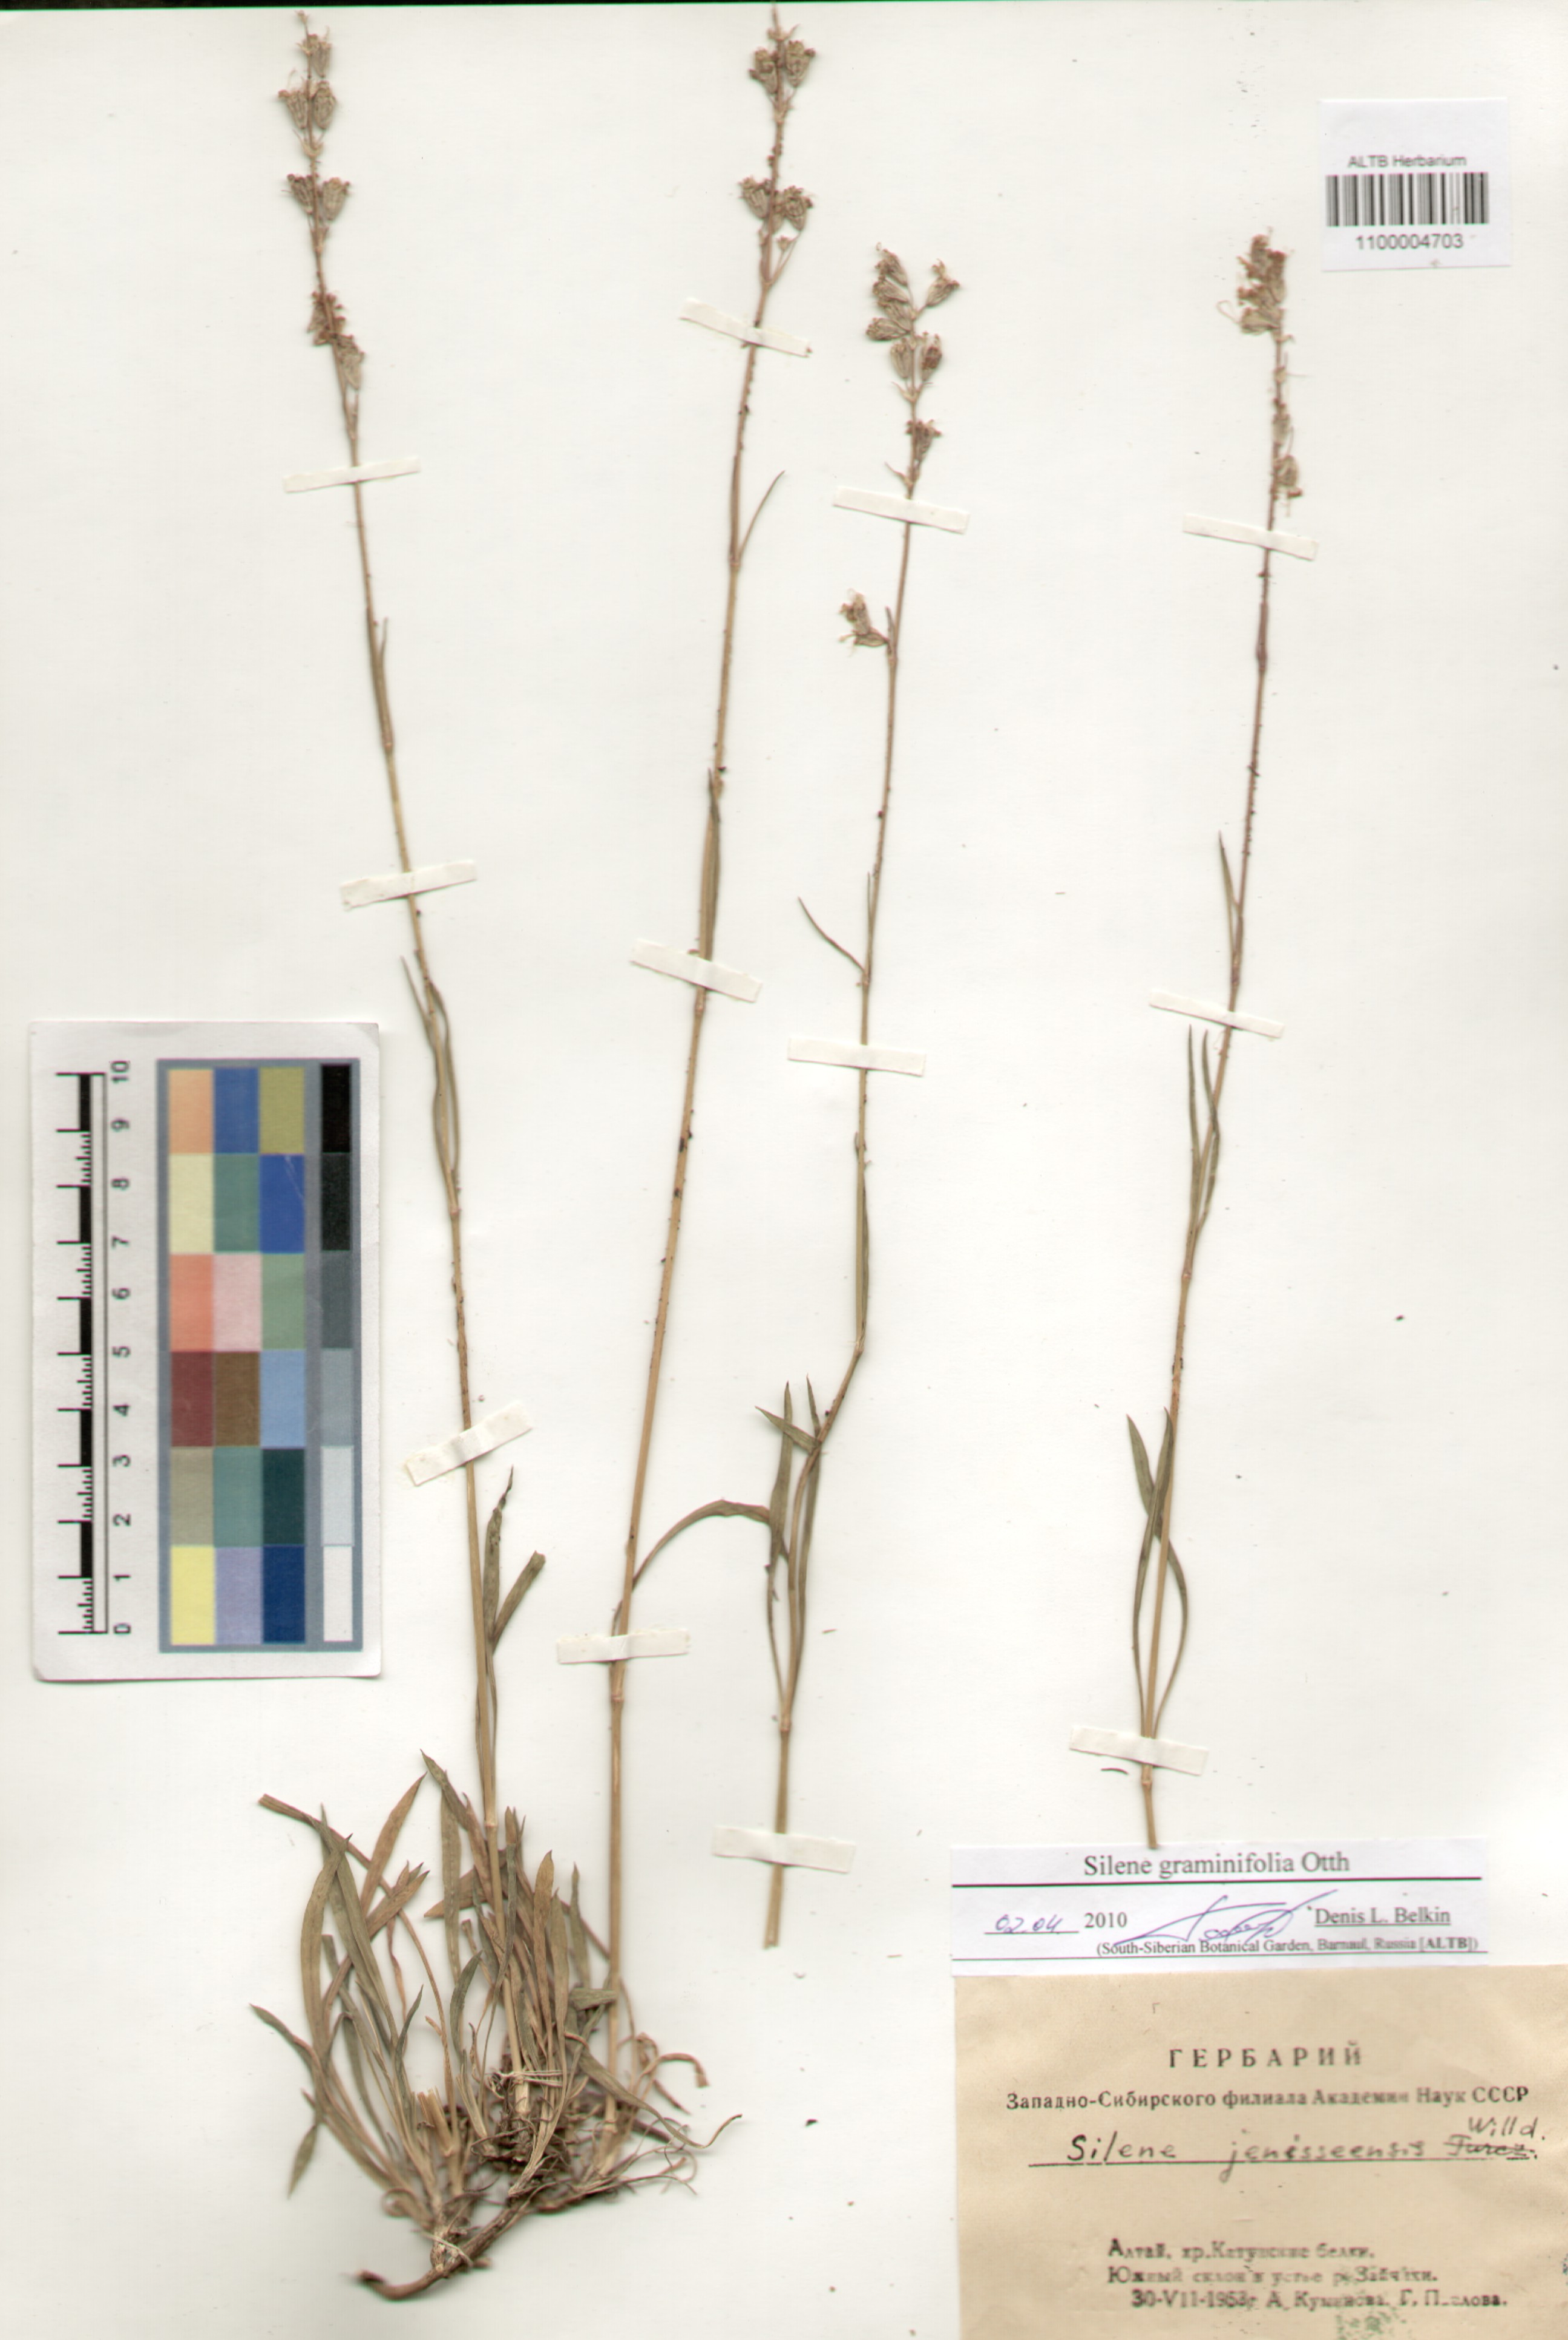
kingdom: Plantae
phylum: Tracheophyta
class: Magnoliopsida
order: Caryophyllales
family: Caryophyllaceae
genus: Silene
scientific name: Silene graminifolia
